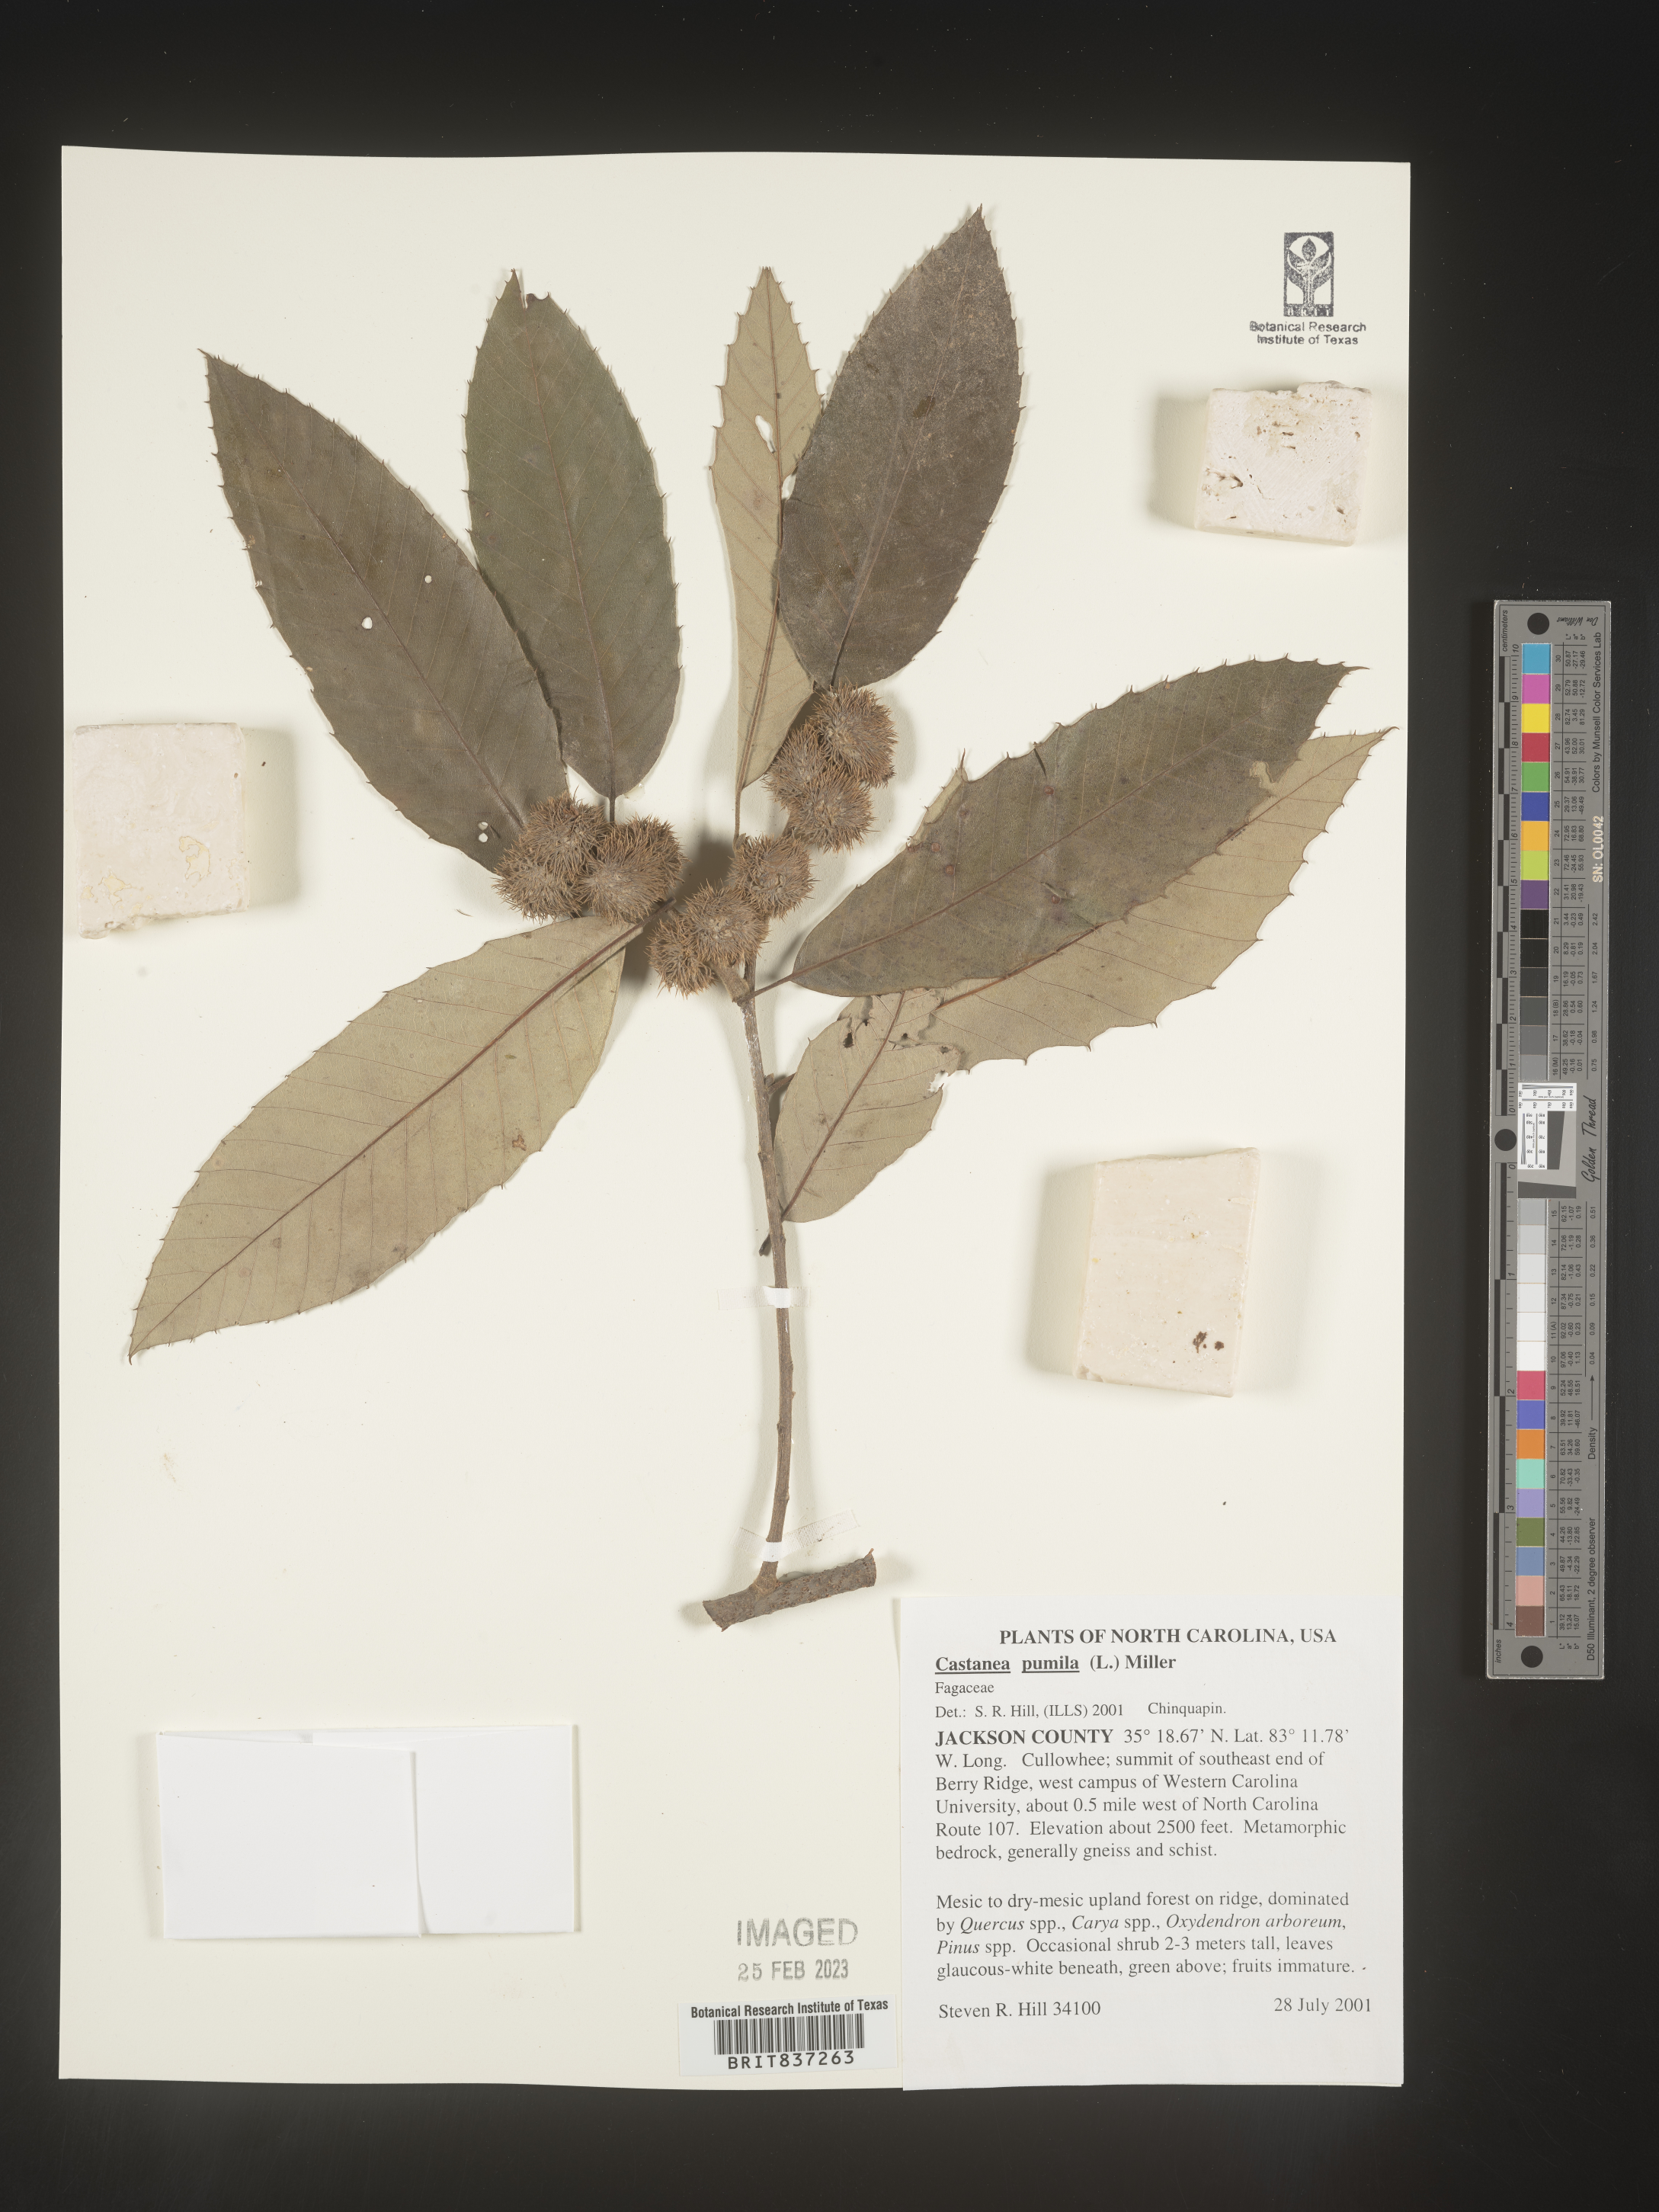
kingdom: Plantae
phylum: Tracheophyta
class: Magnoliopsida
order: Fagales
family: Fagaceae
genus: Castanea
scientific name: Castanea pumila
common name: Chinkapin
